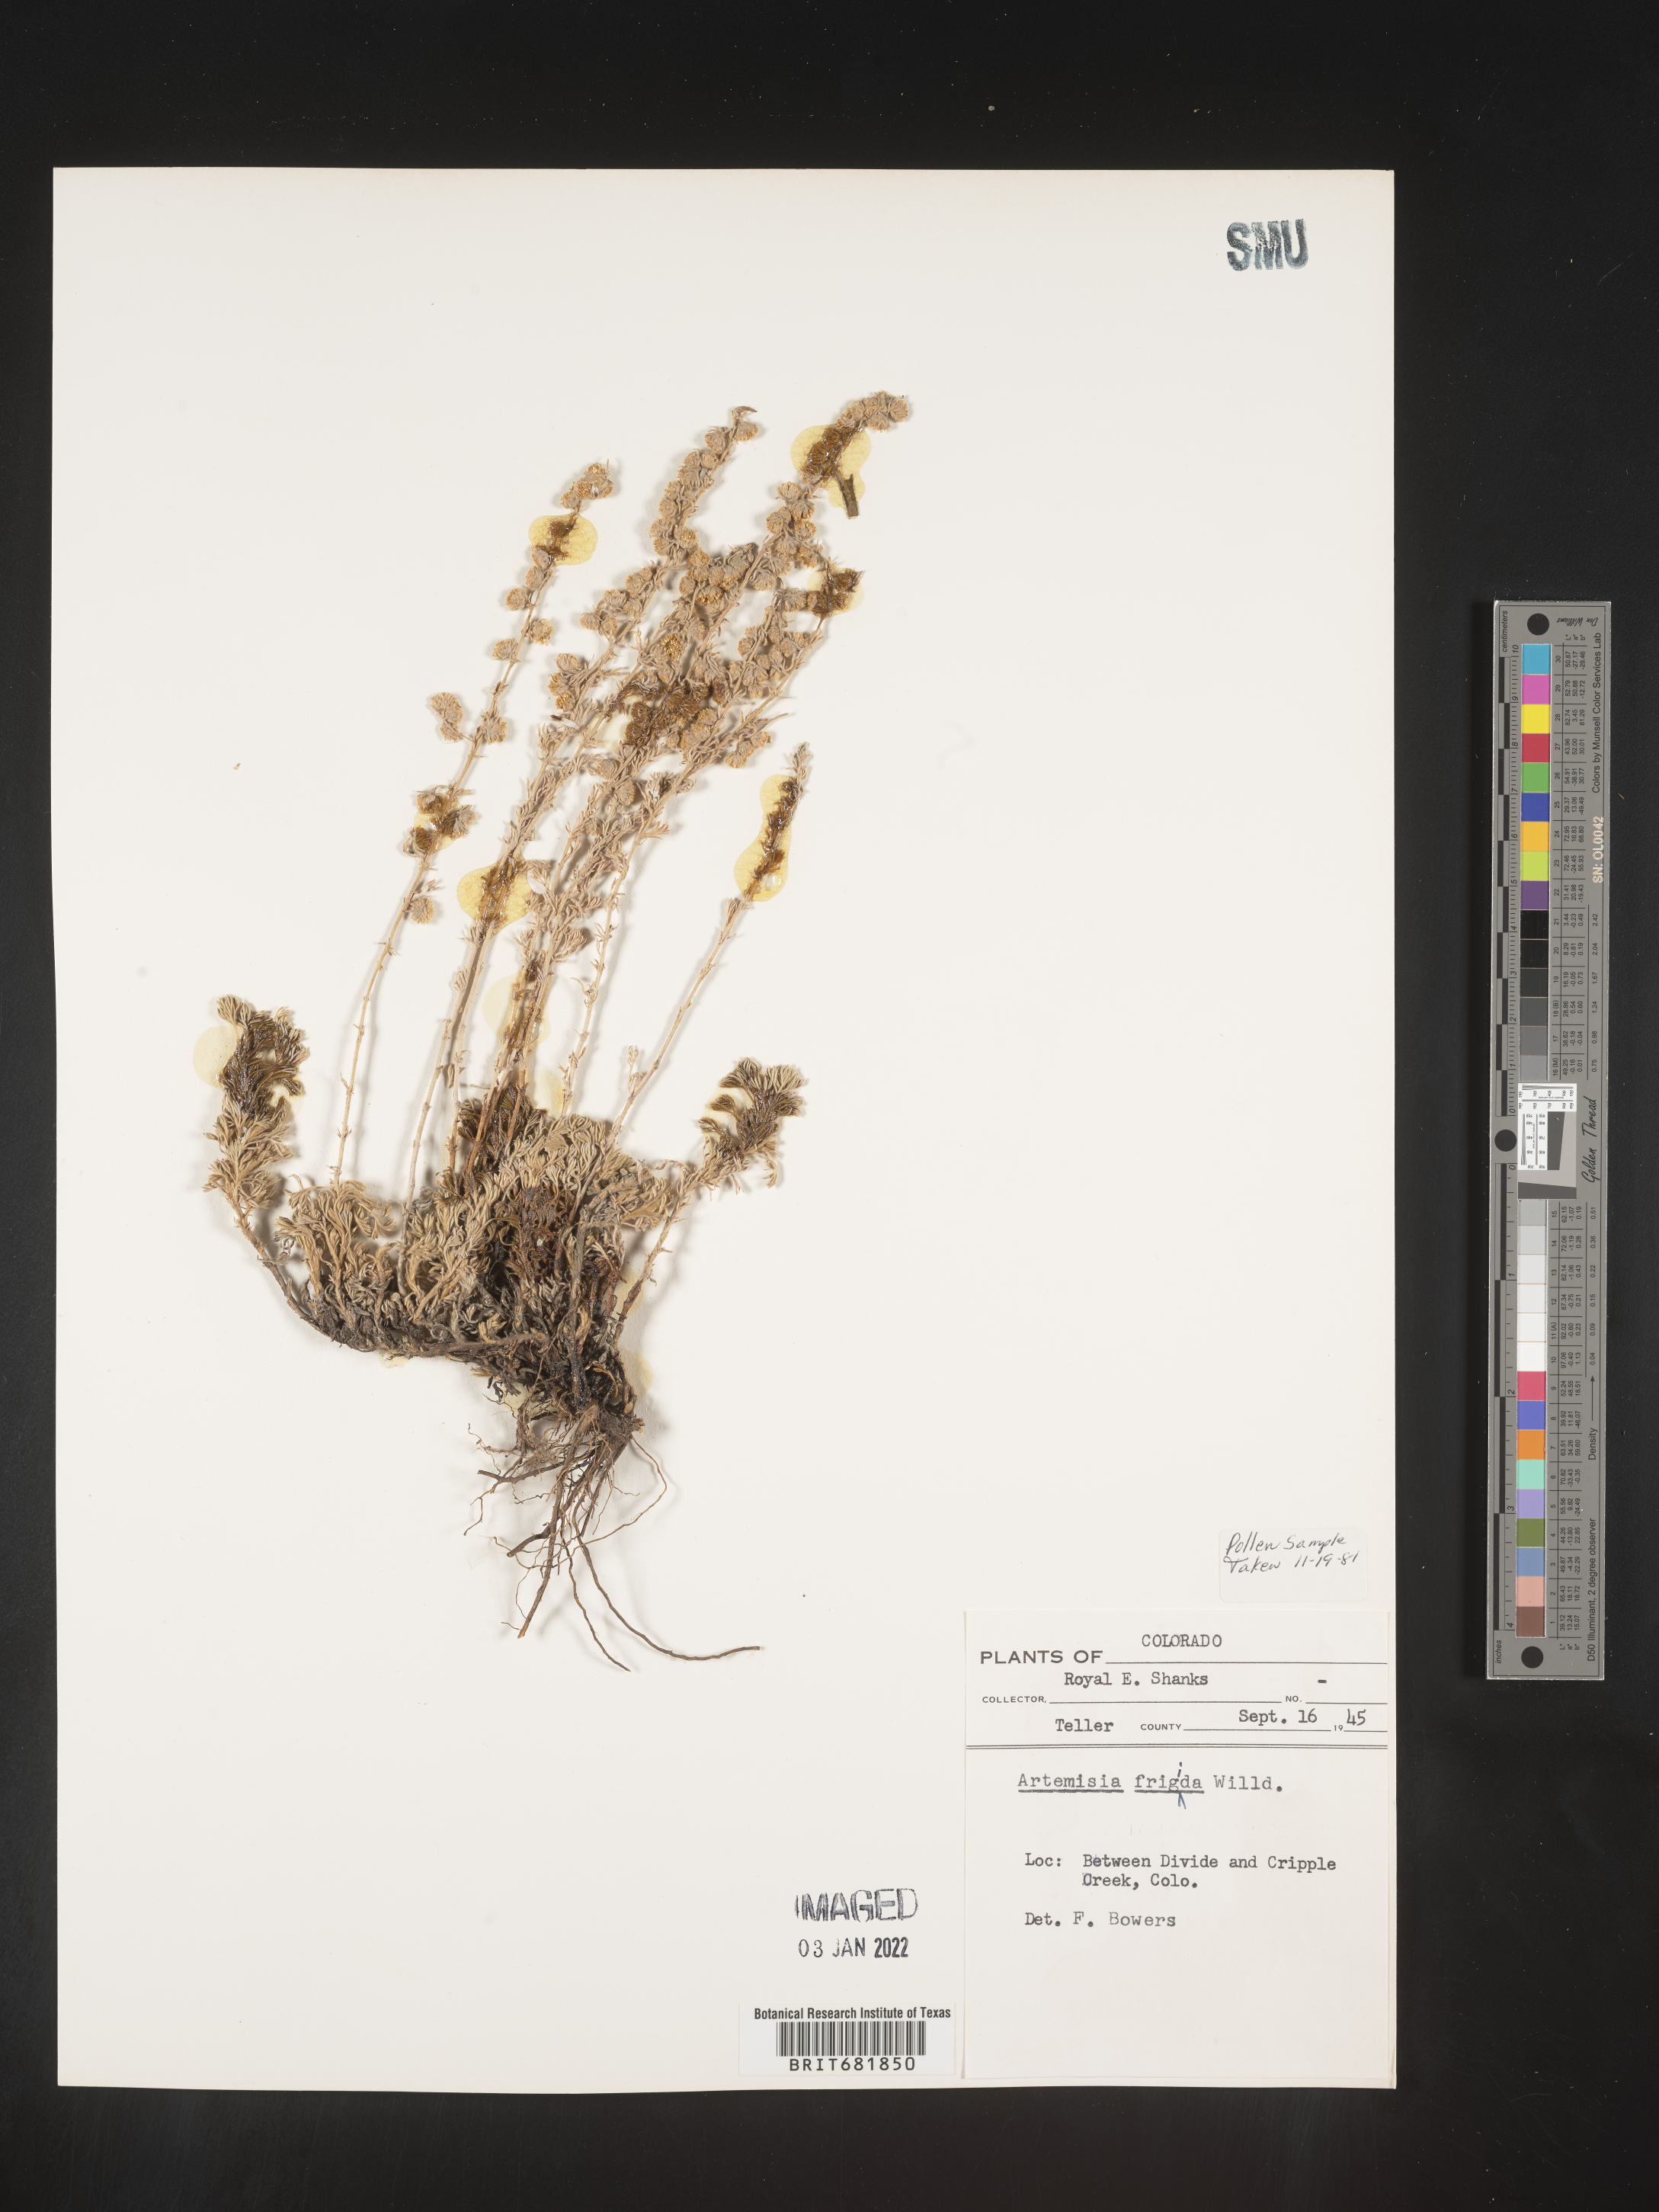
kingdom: Plantae
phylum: Tracheophyta
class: Magnoliopsida
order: Asterales
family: Asteraceae
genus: Artemisia
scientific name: Artemisia frigida
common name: Prairie sagewort
